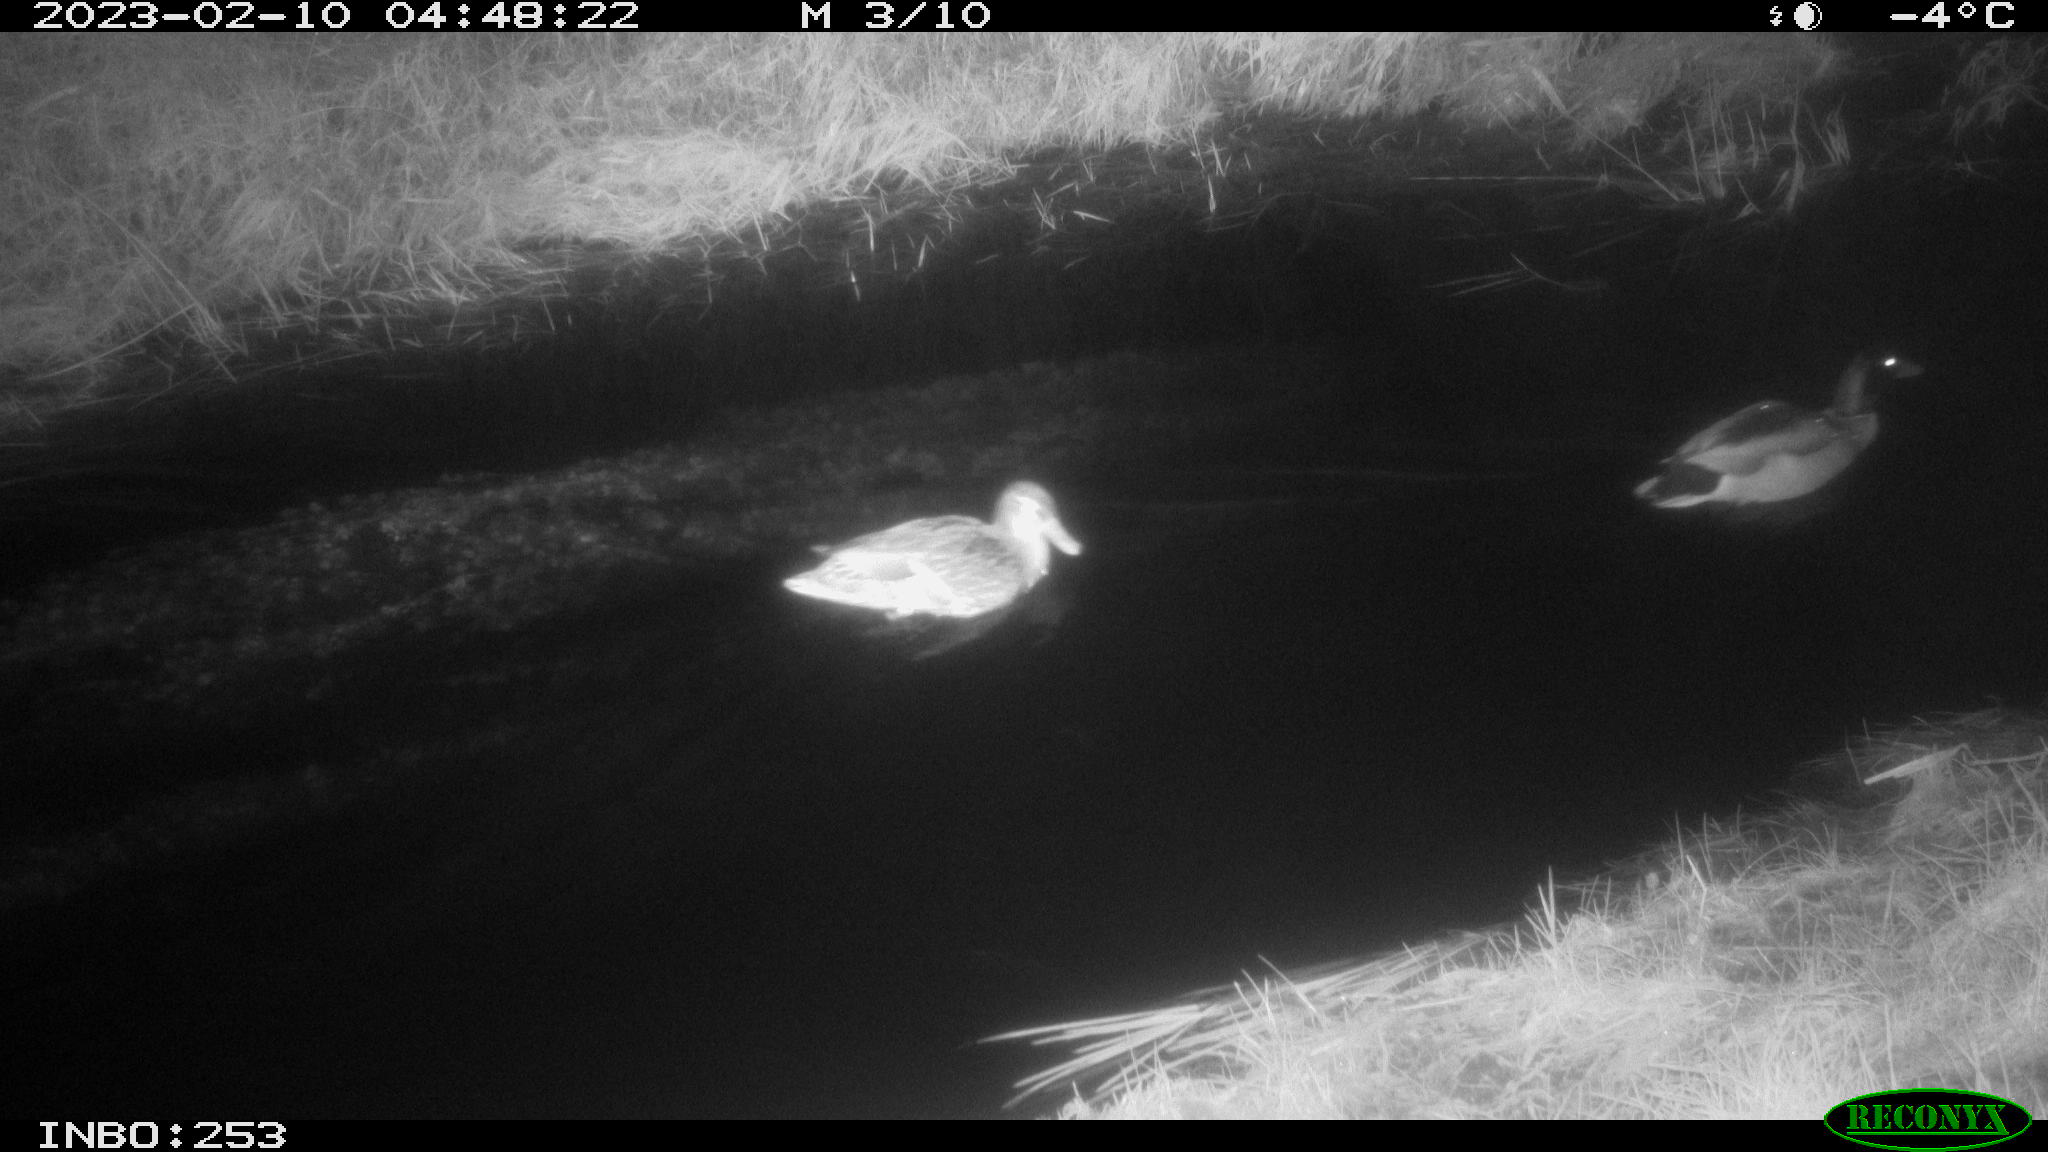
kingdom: Animalia
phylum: Chordata
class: Aves
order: Anseriformes
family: Anatidae
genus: Anas
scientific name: Anas
